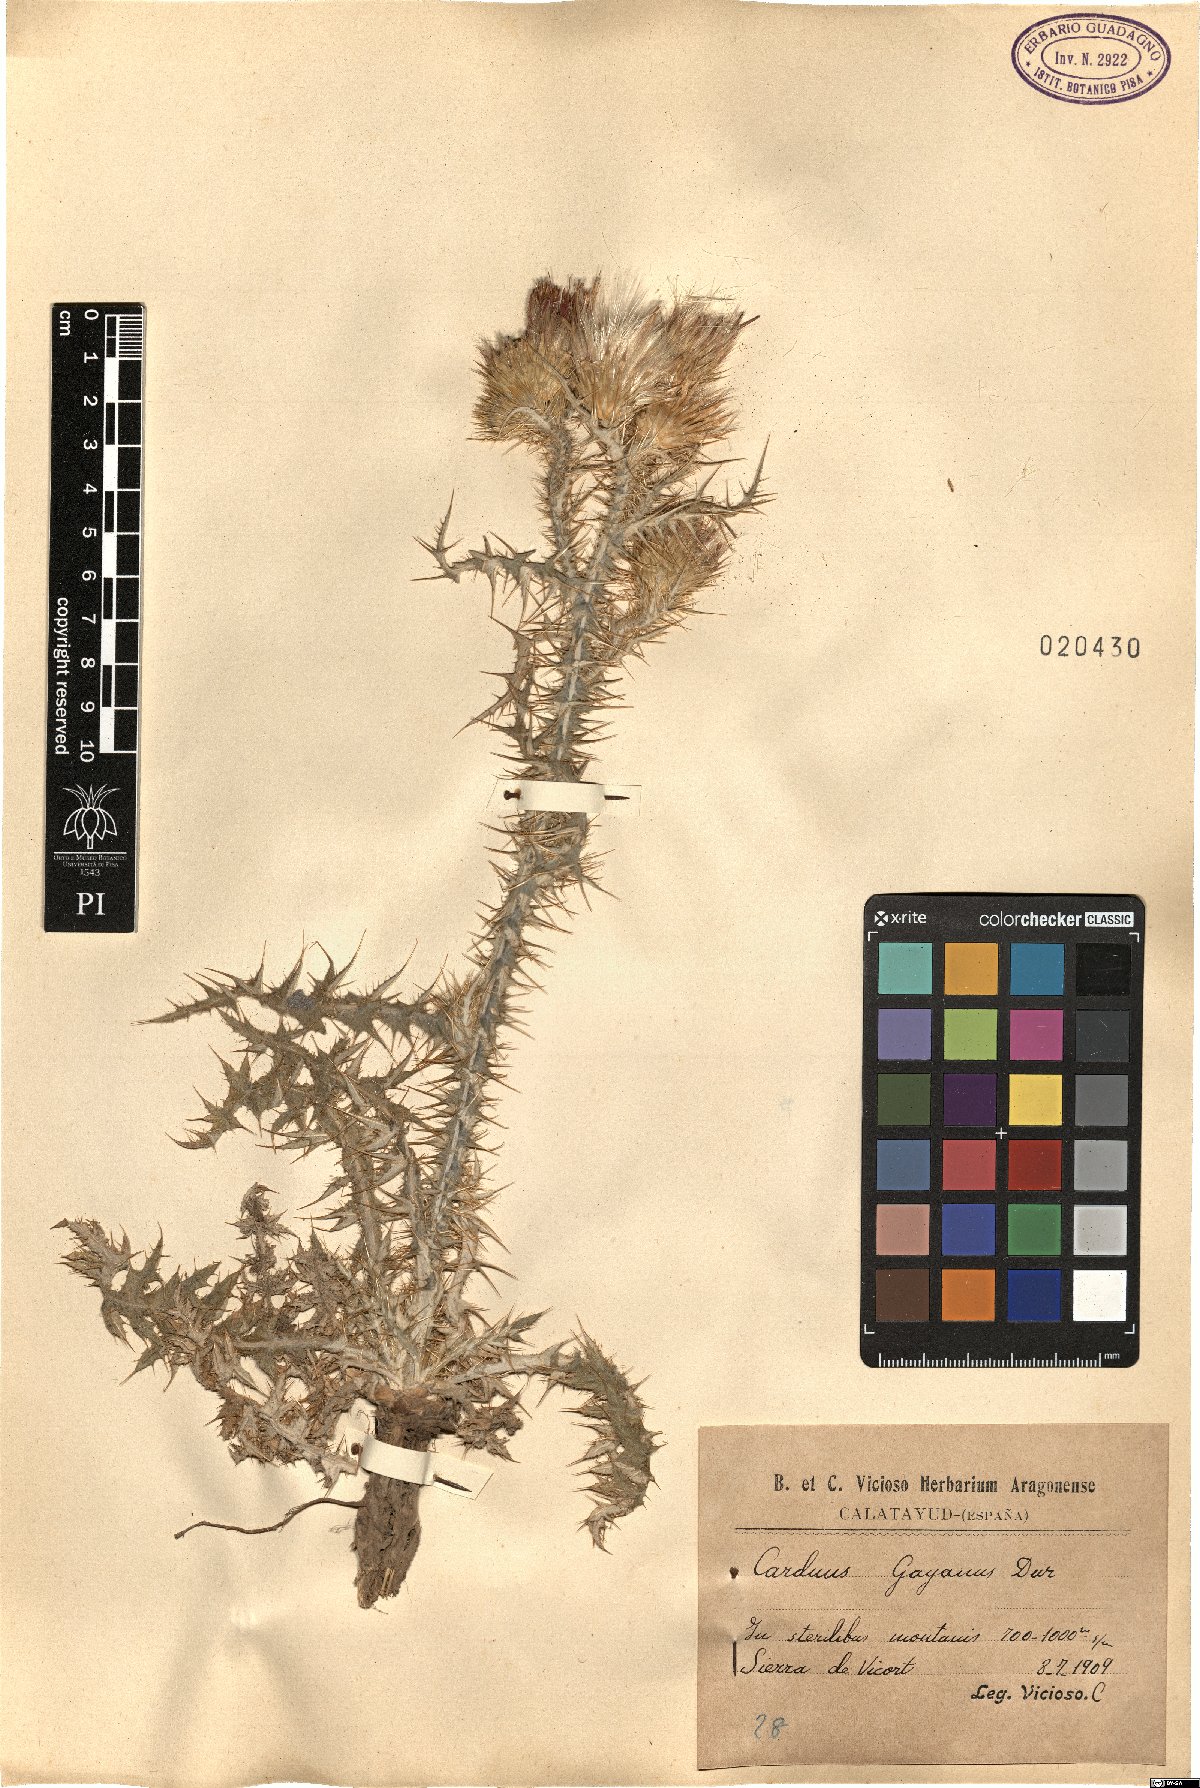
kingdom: Plantae
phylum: Tracheophyta
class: Magnoliopsida
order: Asterales
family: Asteraceae
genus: Carduus
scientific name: Carduus carpetanus
